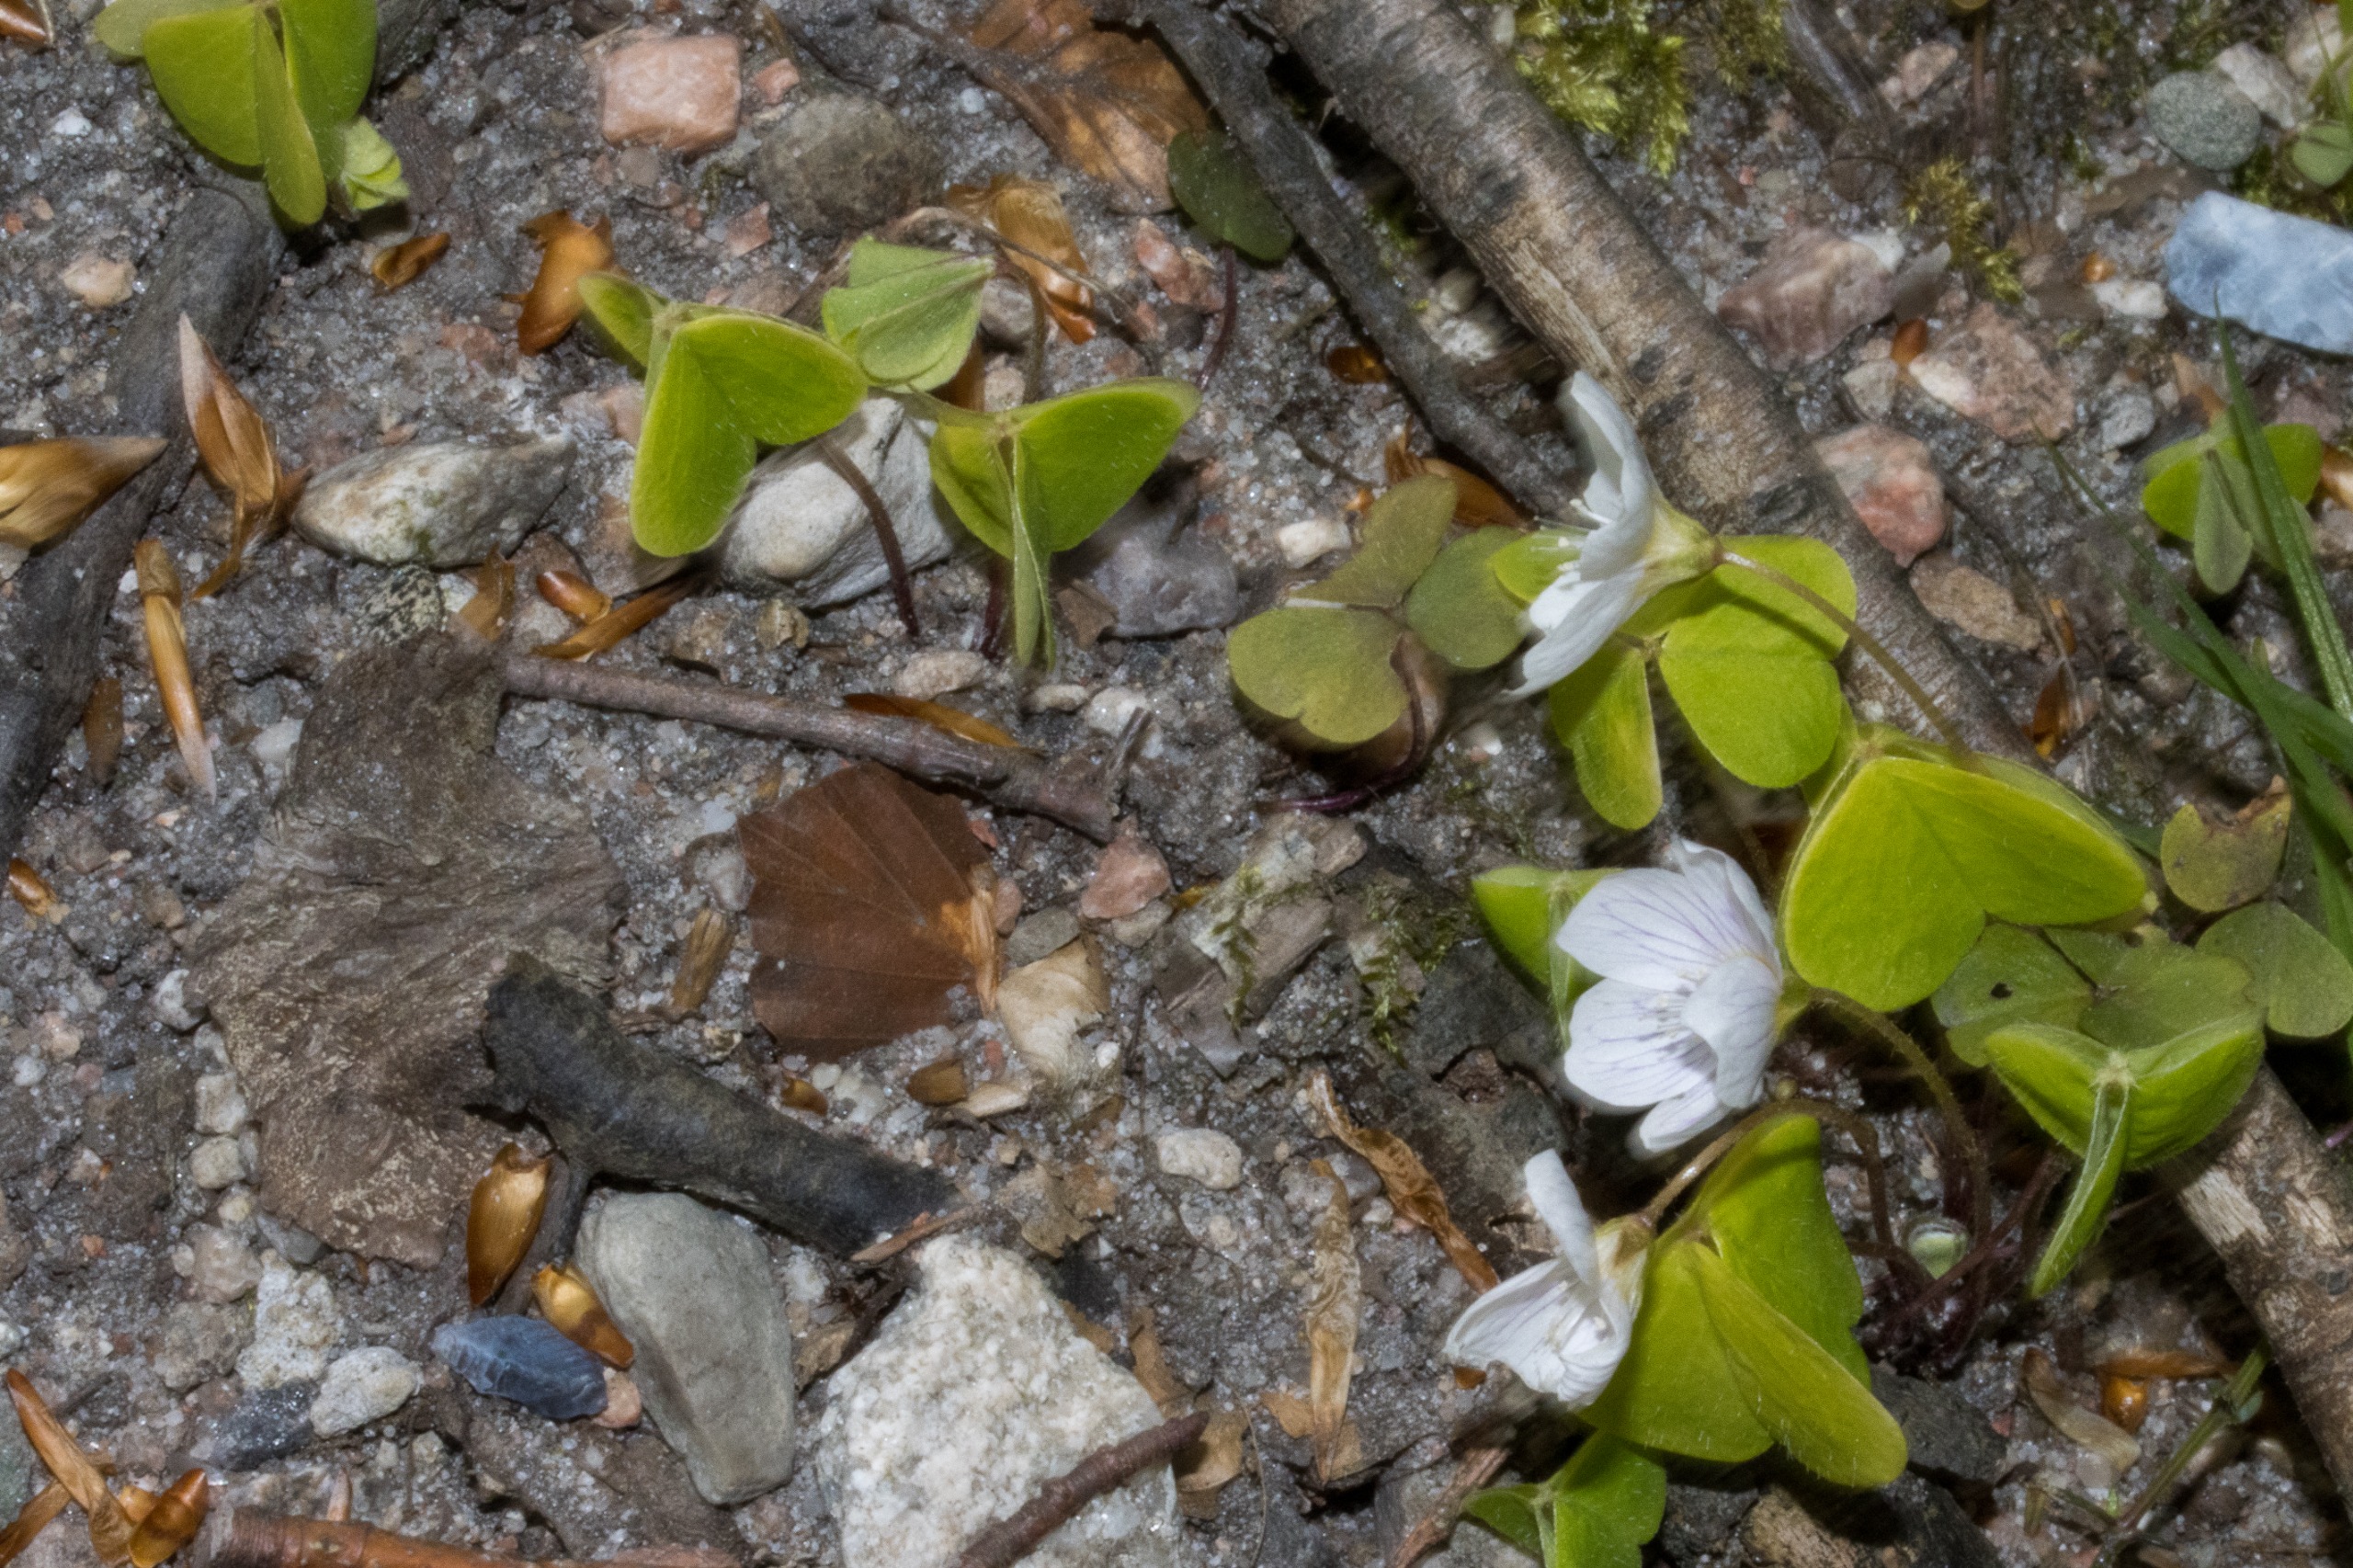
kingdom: Plantae
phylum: Tracheophyta
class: Magnoliopsida
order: Oxalidales
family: Oxalidaceae
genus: Oxalis
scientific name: Oxalis acetosella
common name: Skovsyre
